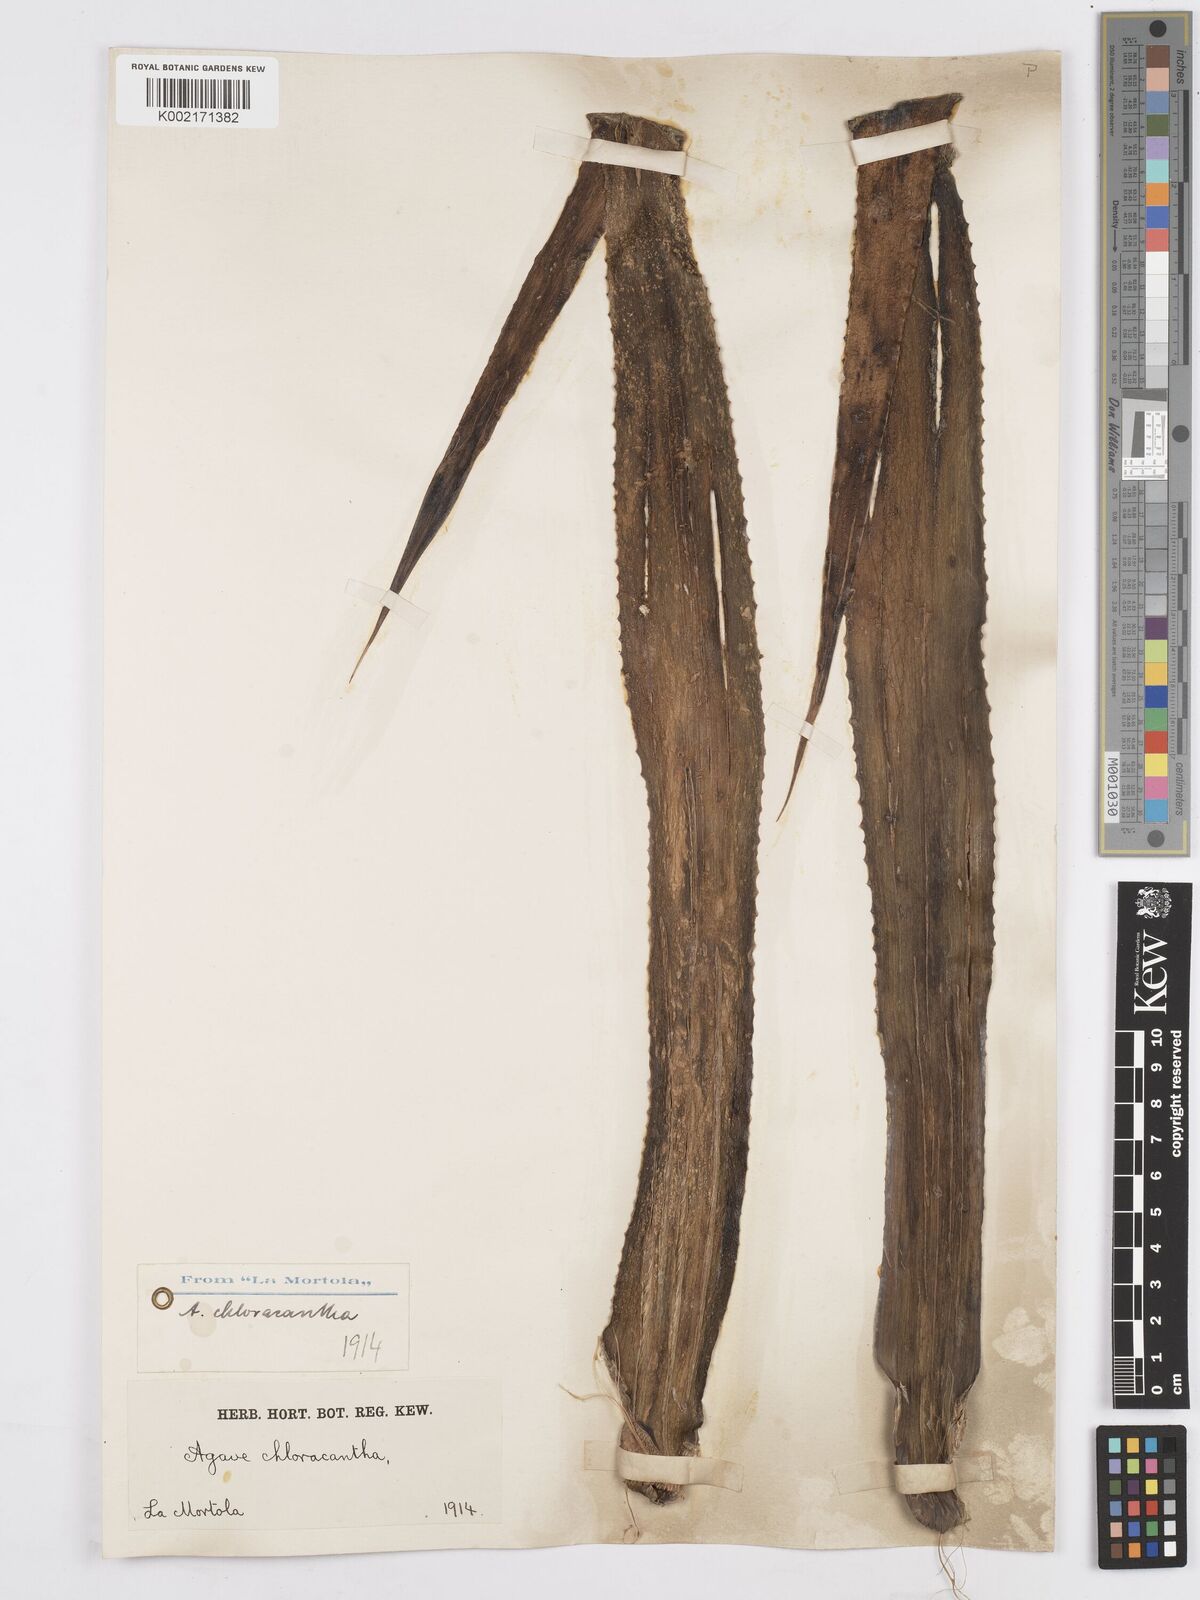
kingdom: Plantae
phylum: Tracheophyta
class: Liliopsida
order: Asparagales
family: Asparagaceae
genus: Agave
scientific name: Agave polyacantha
